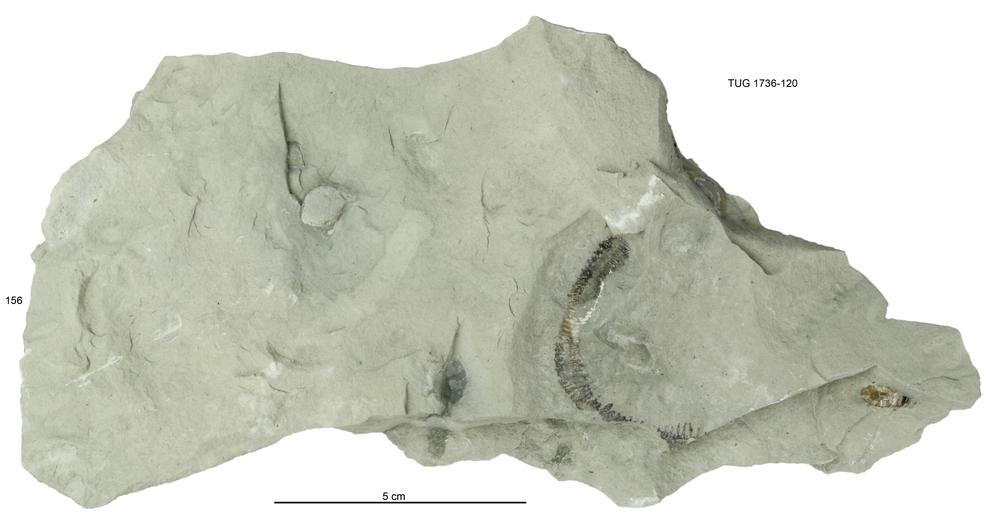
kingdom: Animalia
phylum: Echinodermata
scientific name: Echinodermata
